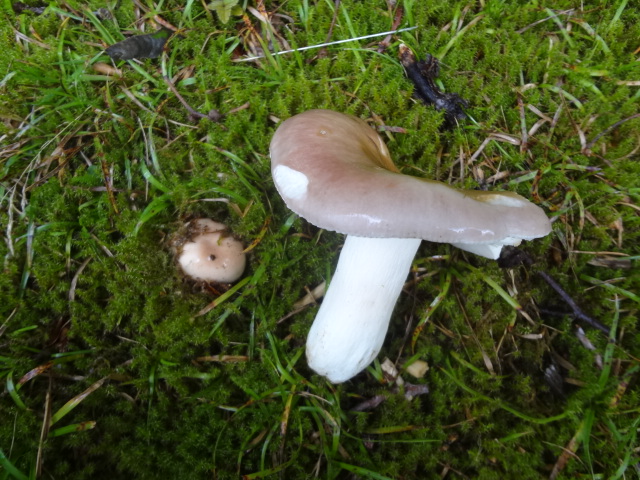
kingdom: Fungi
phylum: Basidiomycota
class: Agaricomycetes
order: Russulales
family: Russulaceae
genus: Russula
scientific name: Russula cyanoxantha
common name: broget skørhat
